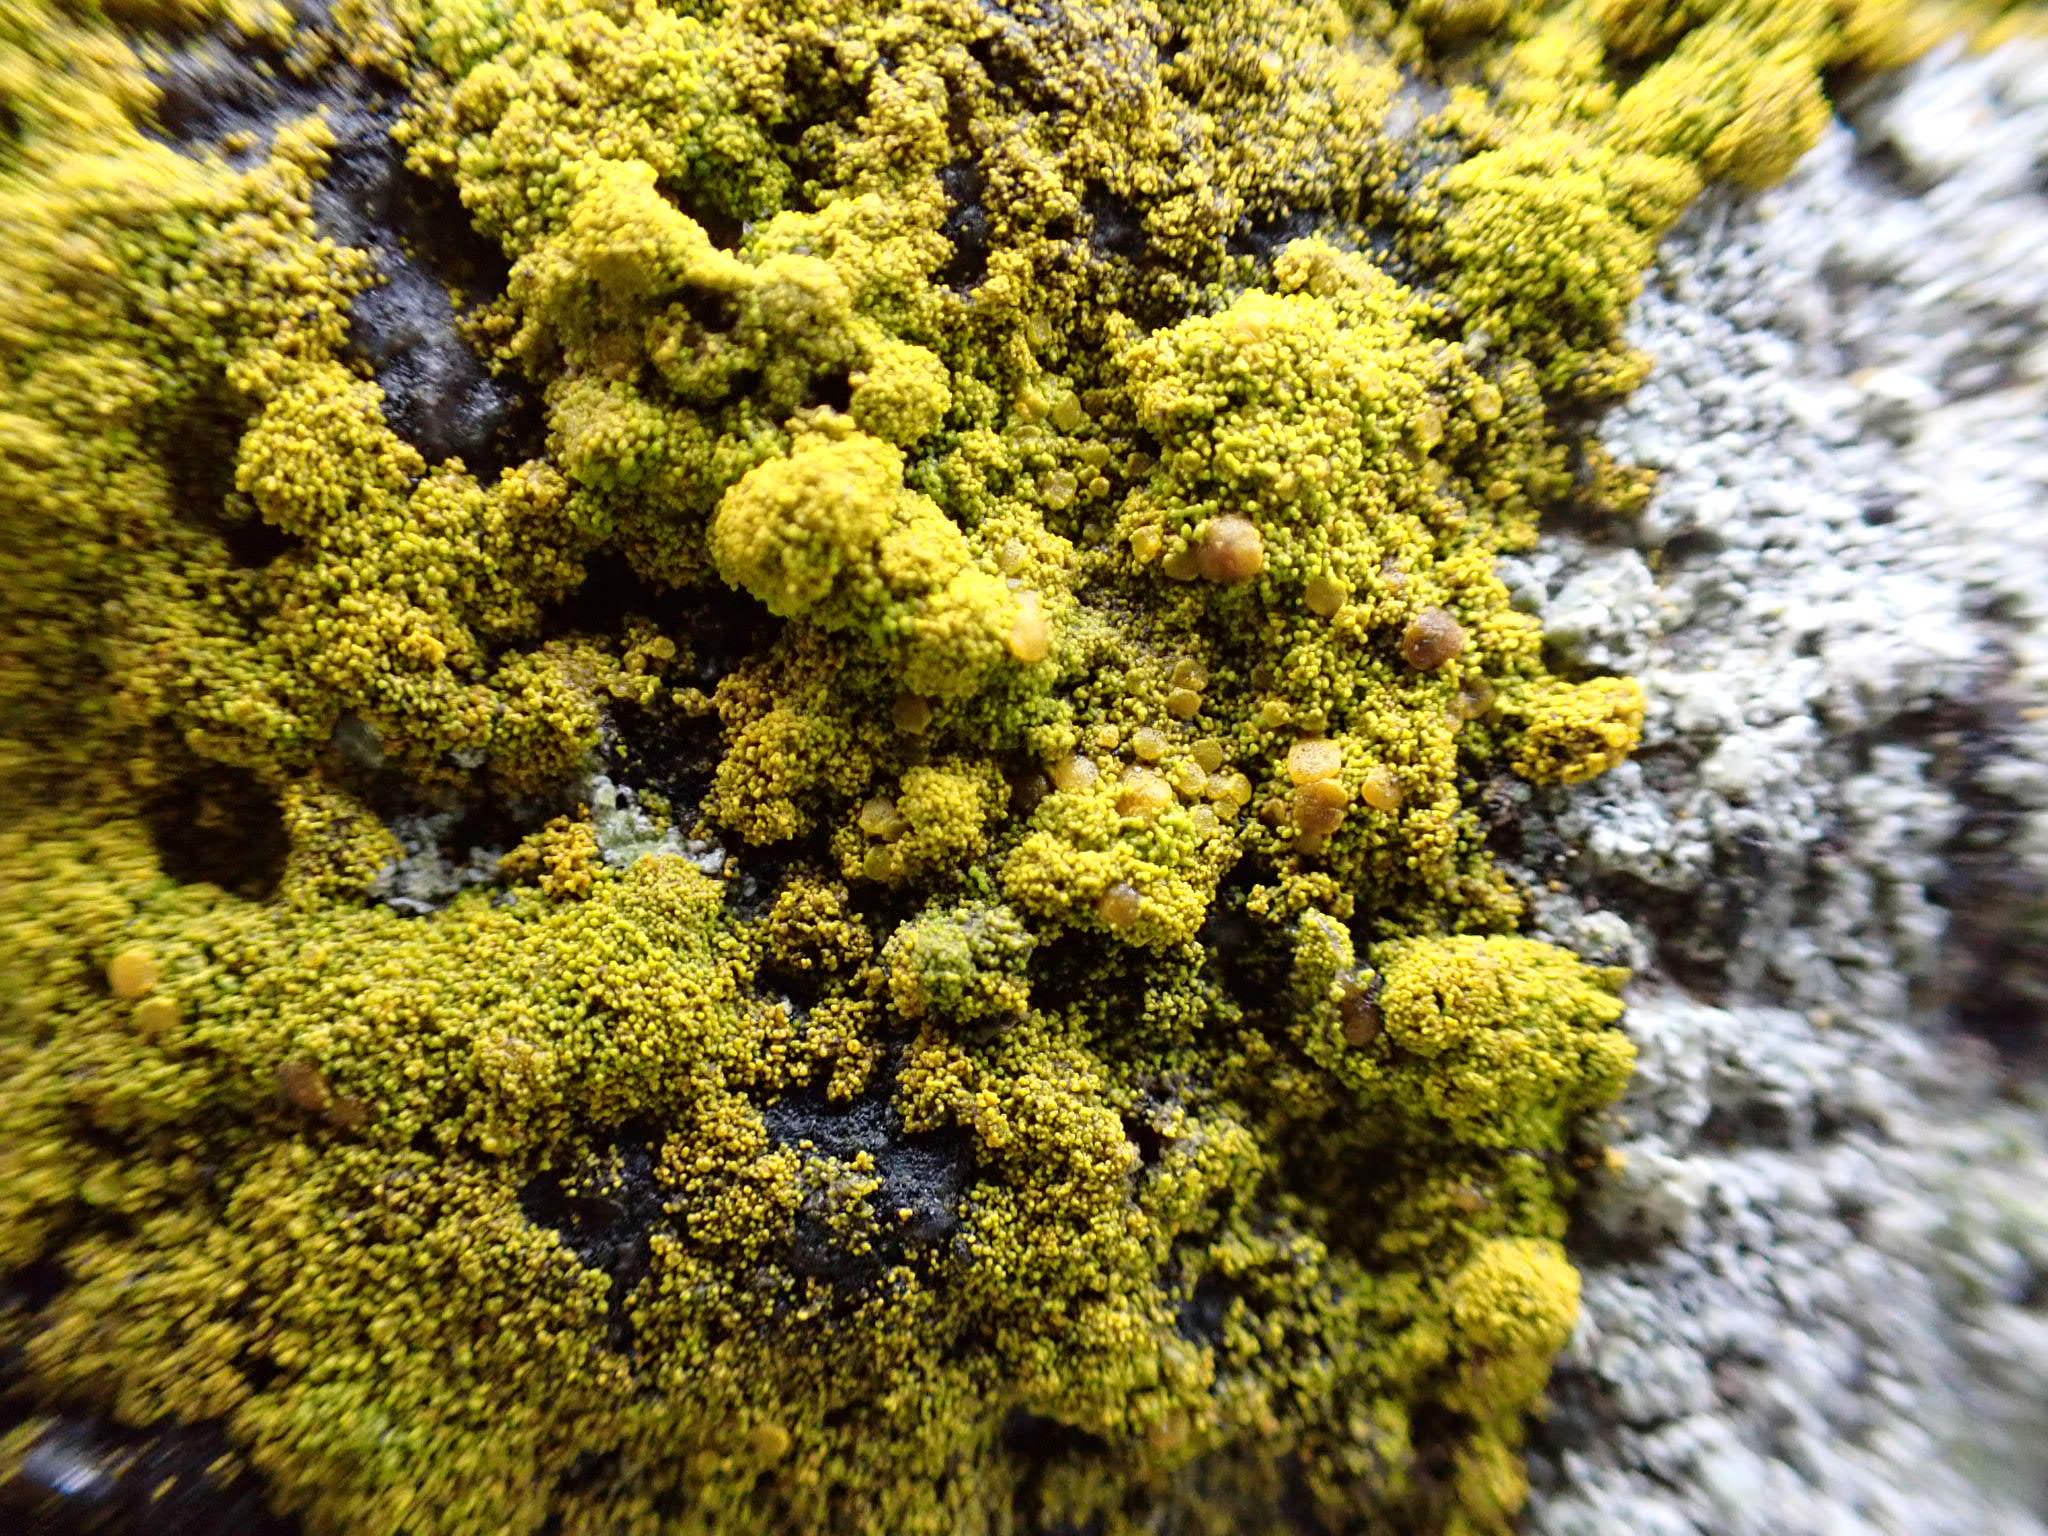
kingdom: Fungi
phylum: Ascomycota
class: Candelariomycetes
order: Candelariales
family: Candelariaceae
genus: Candelariella
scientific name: Candelariella vitellina
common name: almindelig æggeblommelav
